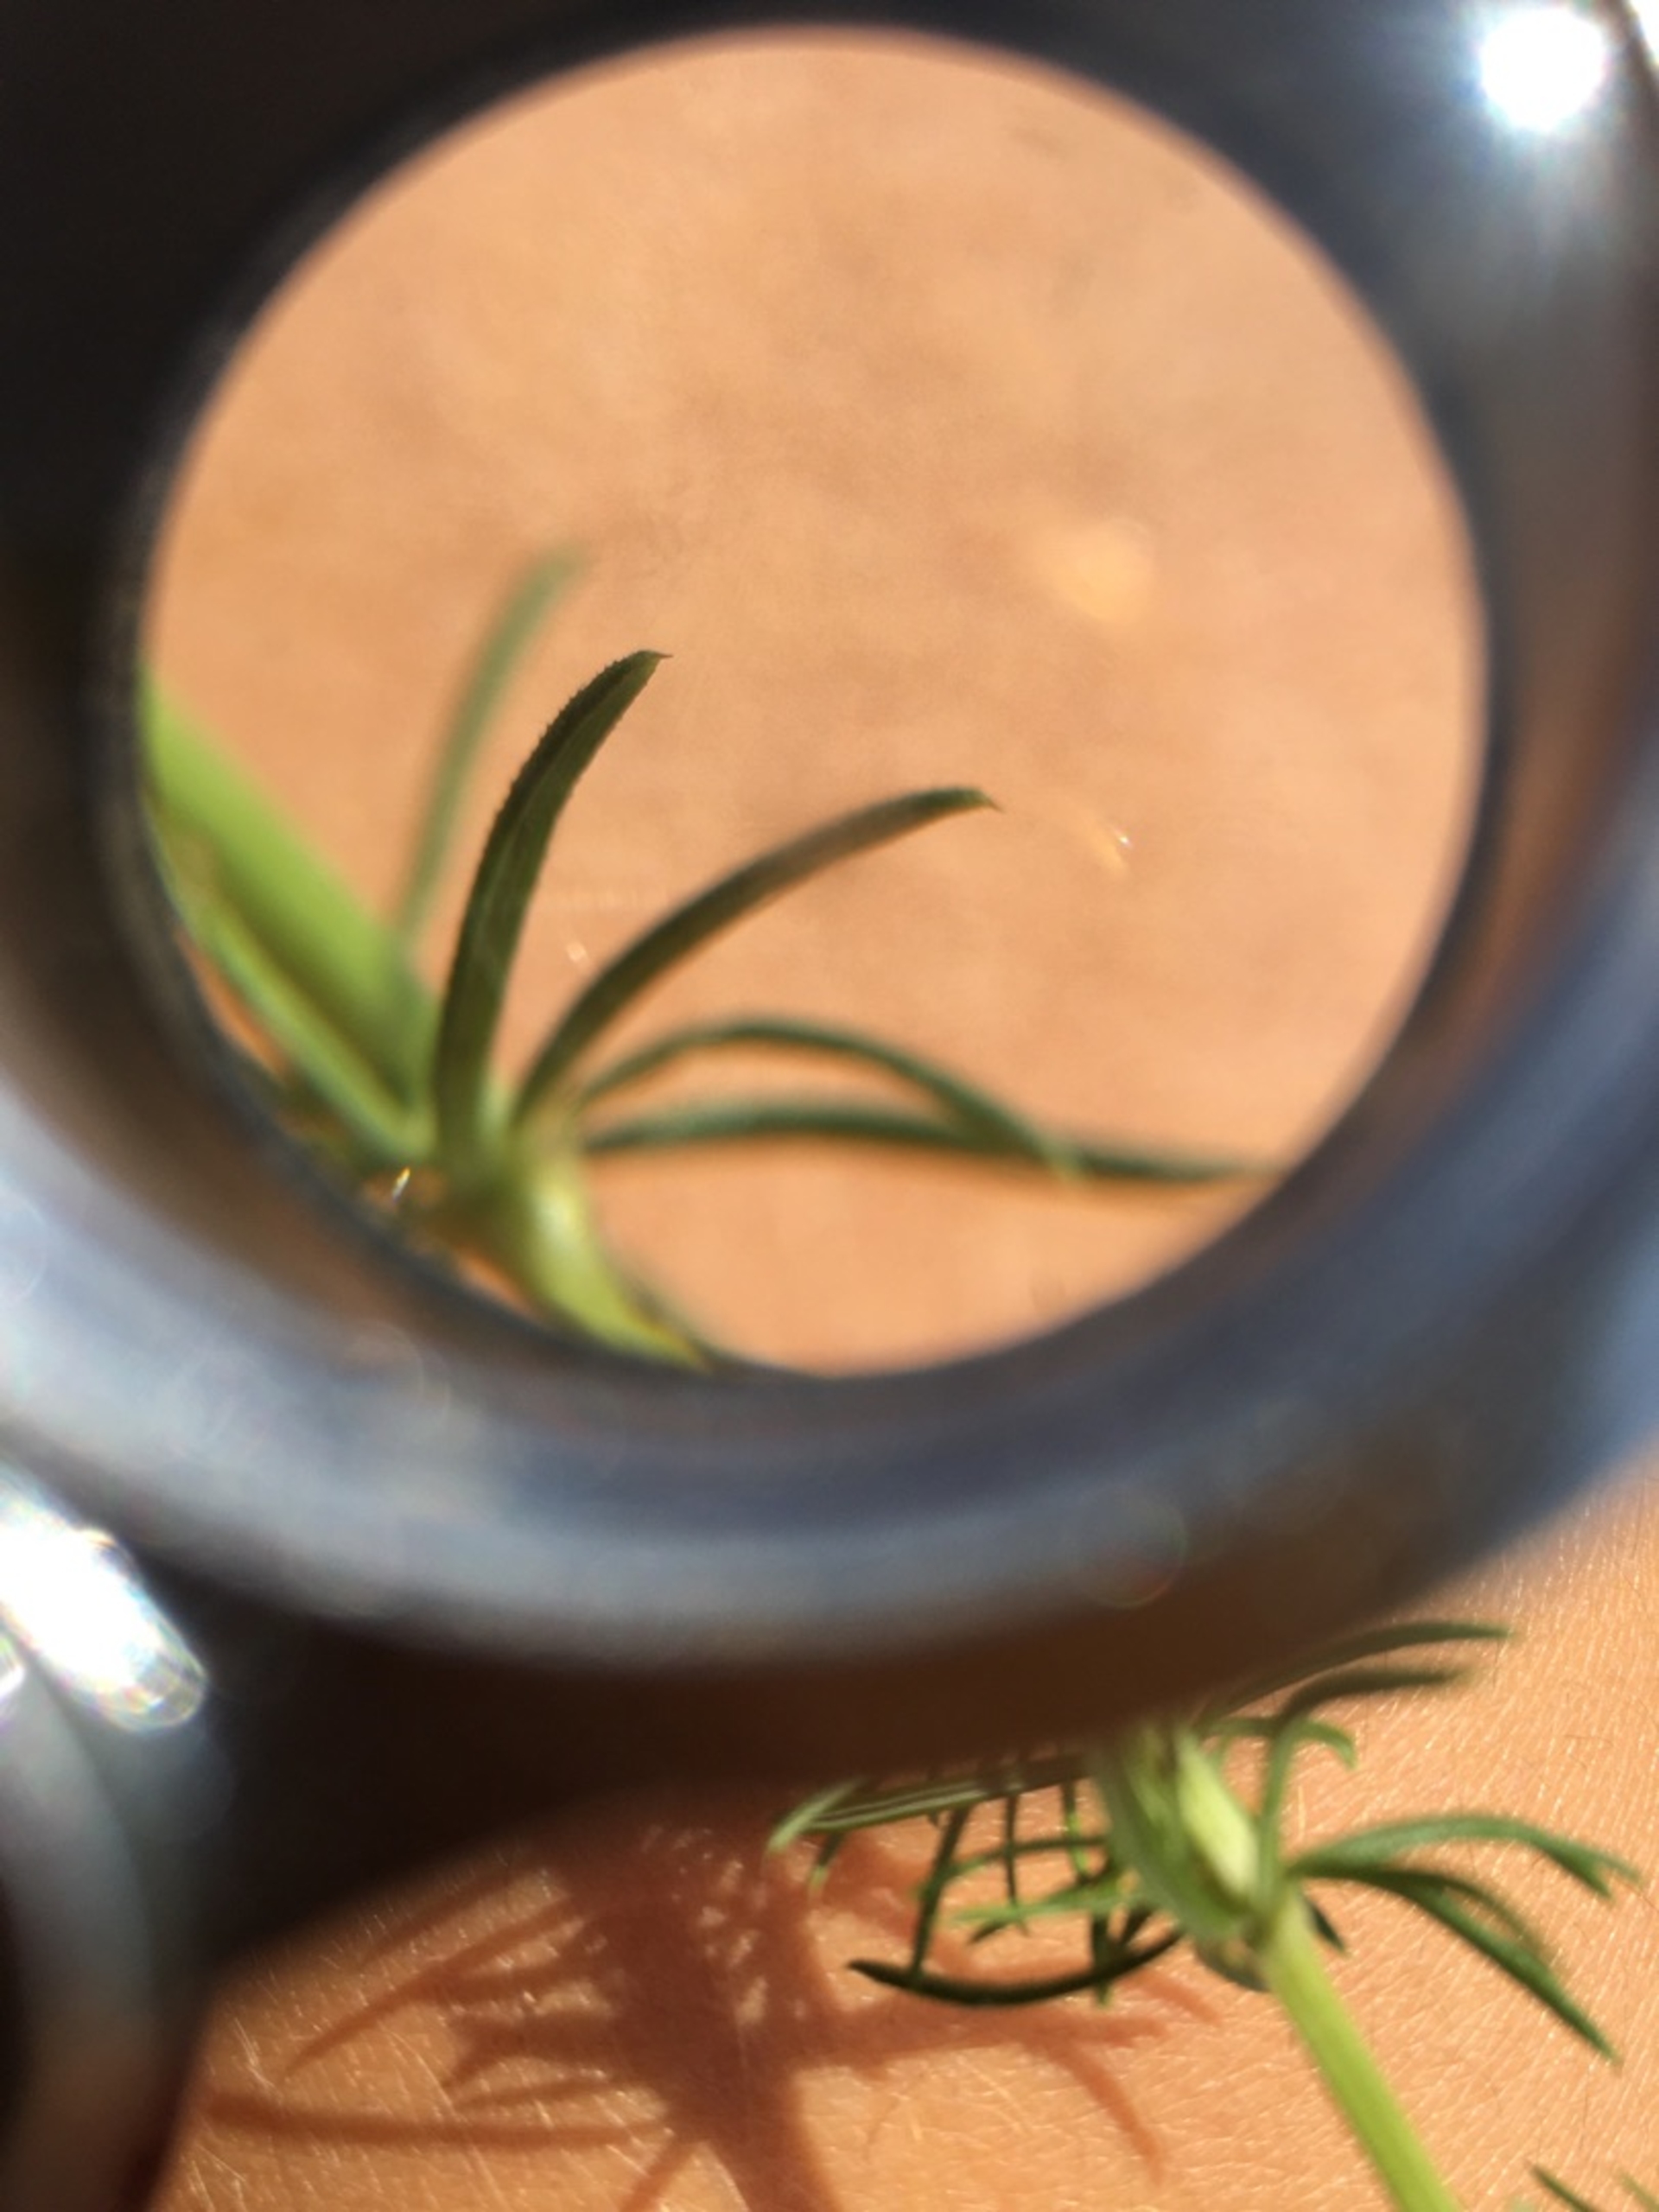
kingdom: Plantae
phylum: Tracheophyta
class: Magnoliopsida
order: Gentianales
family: Rubiaceae
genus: Galium
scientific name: Galium verum
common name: Gul snerre
